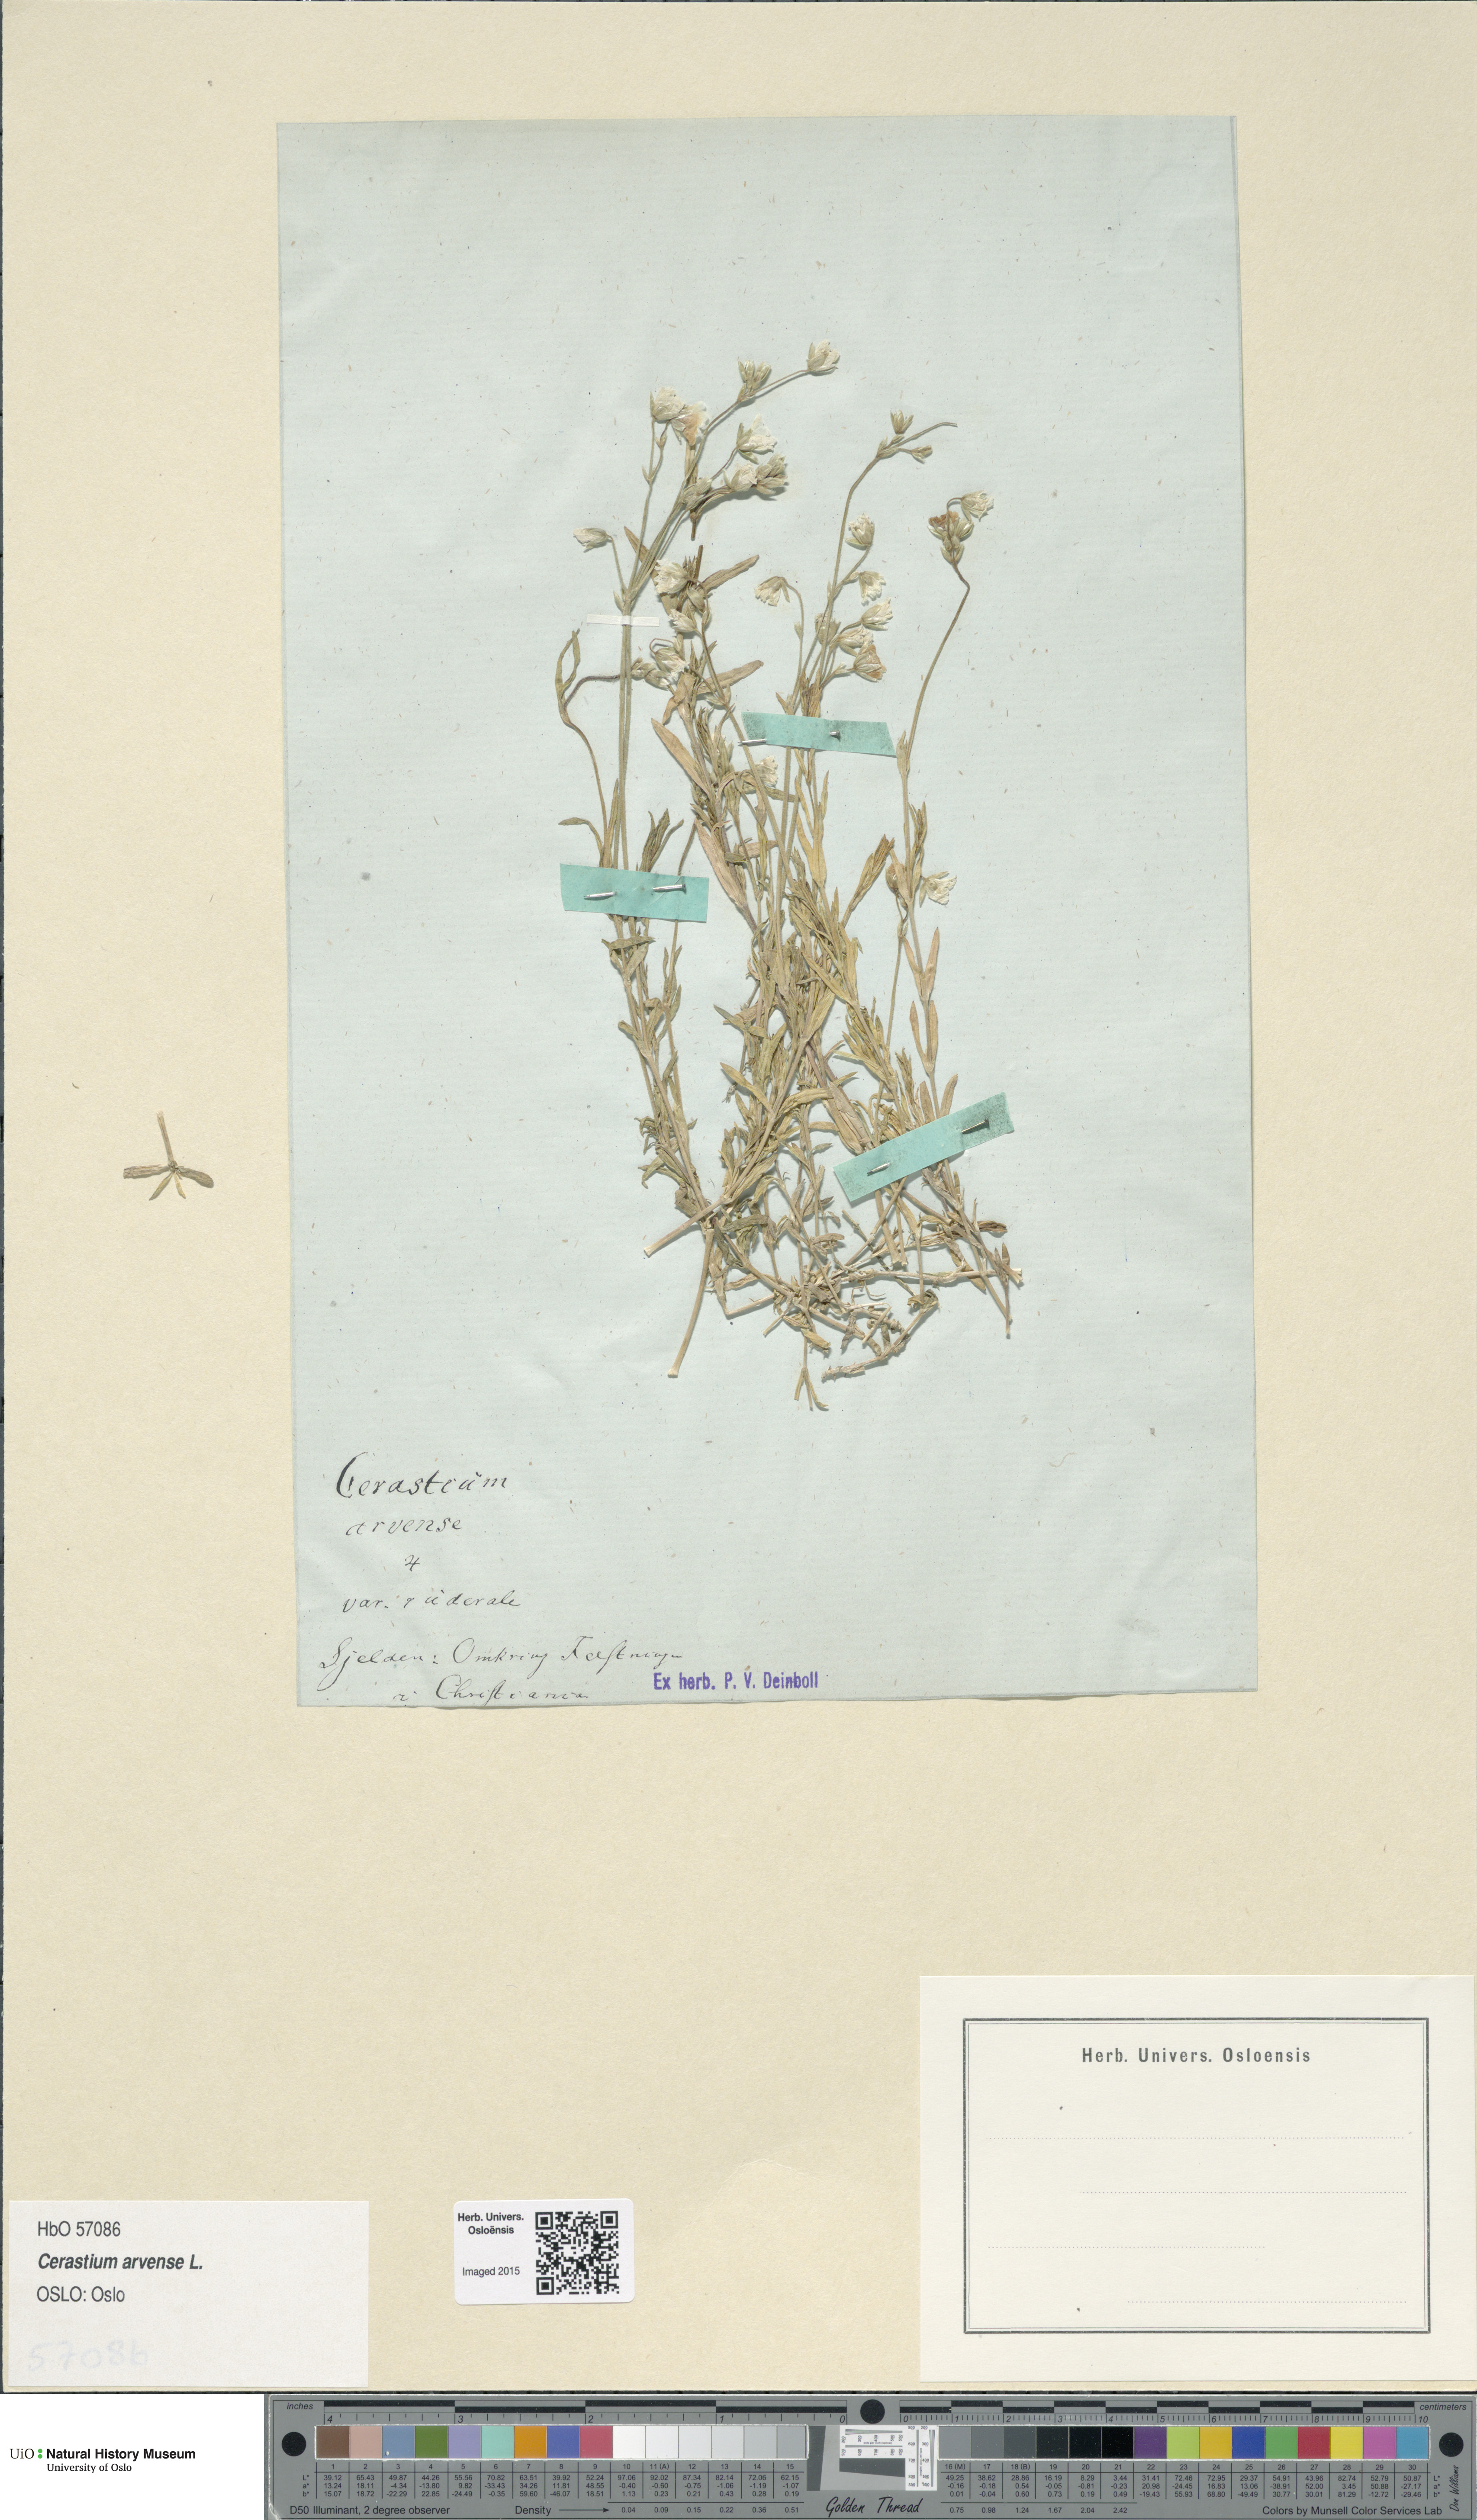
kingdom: Plantae
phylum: Tracheophyta
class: Magnoliopsida
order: Caryophyllales
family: Caryophyllaceae
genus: Cerastium
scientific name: Cerastium arvense
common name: Field mouse-ear
